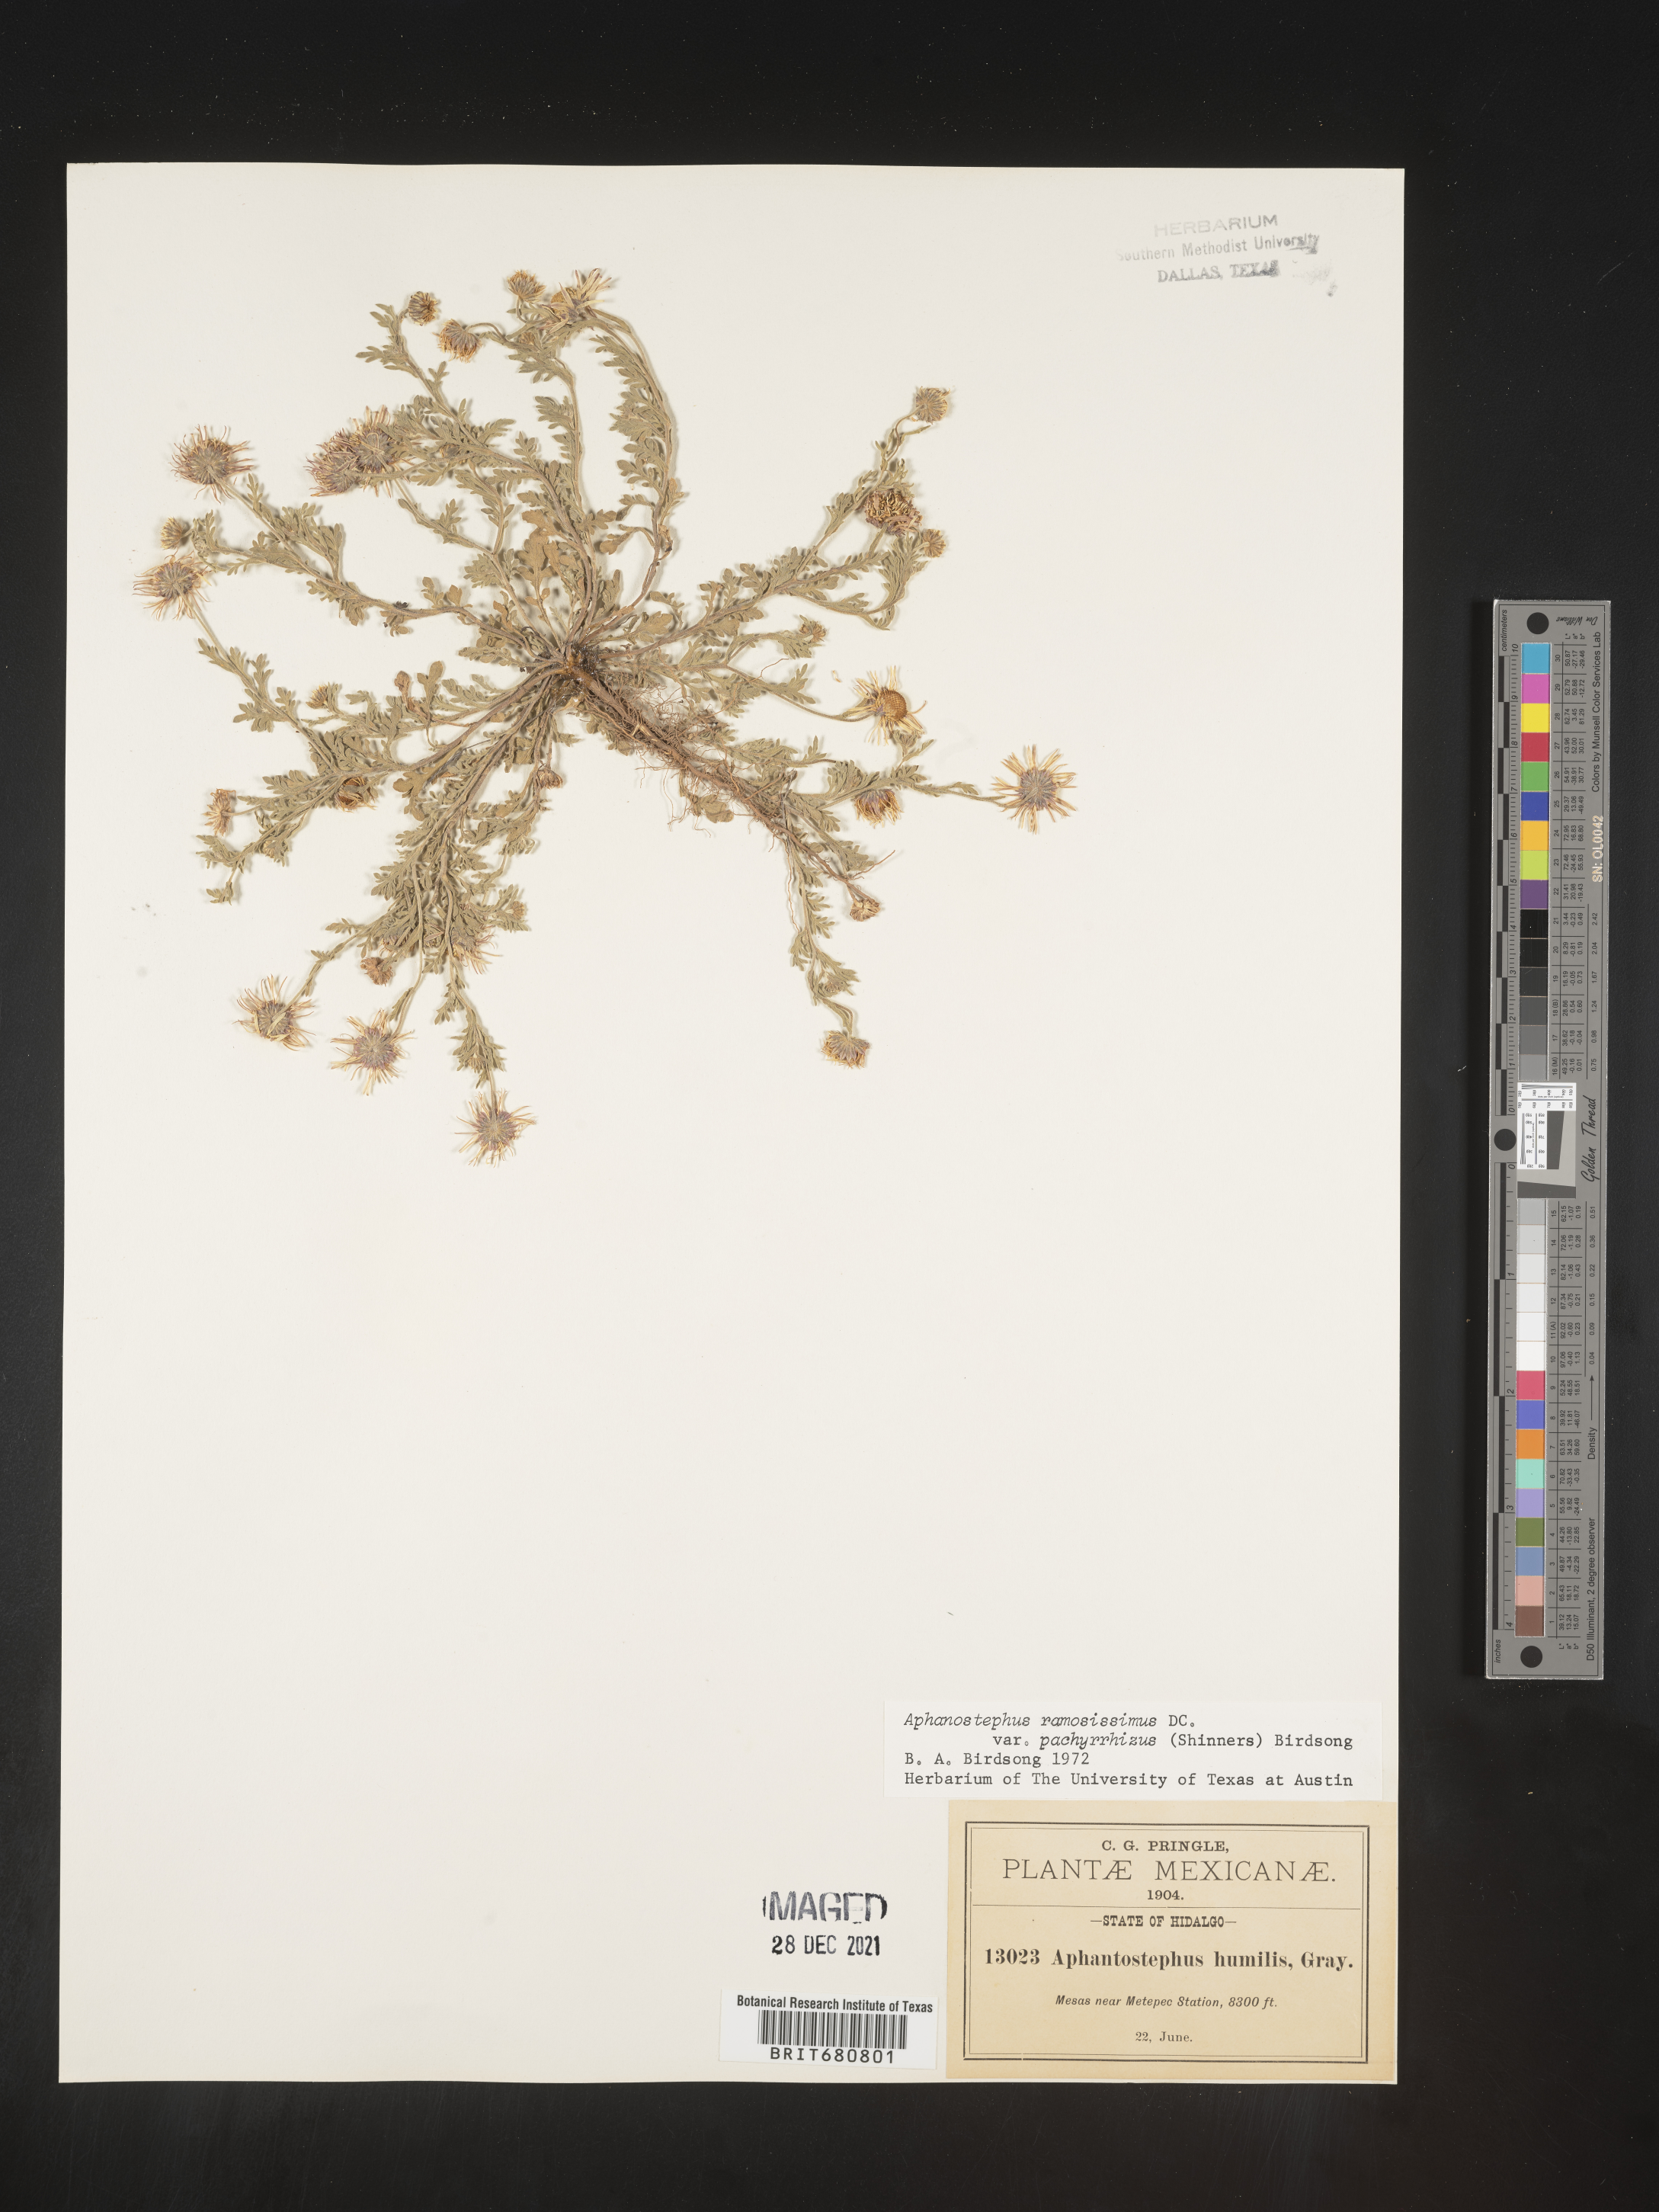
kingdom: Plantae
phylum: Tracheophyta
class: Magnoliopsida
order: Asterales
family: Asteraceae
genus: Aphanostephus
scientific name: Aphanostephus ramosissimus
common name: Plains lazy daisy
